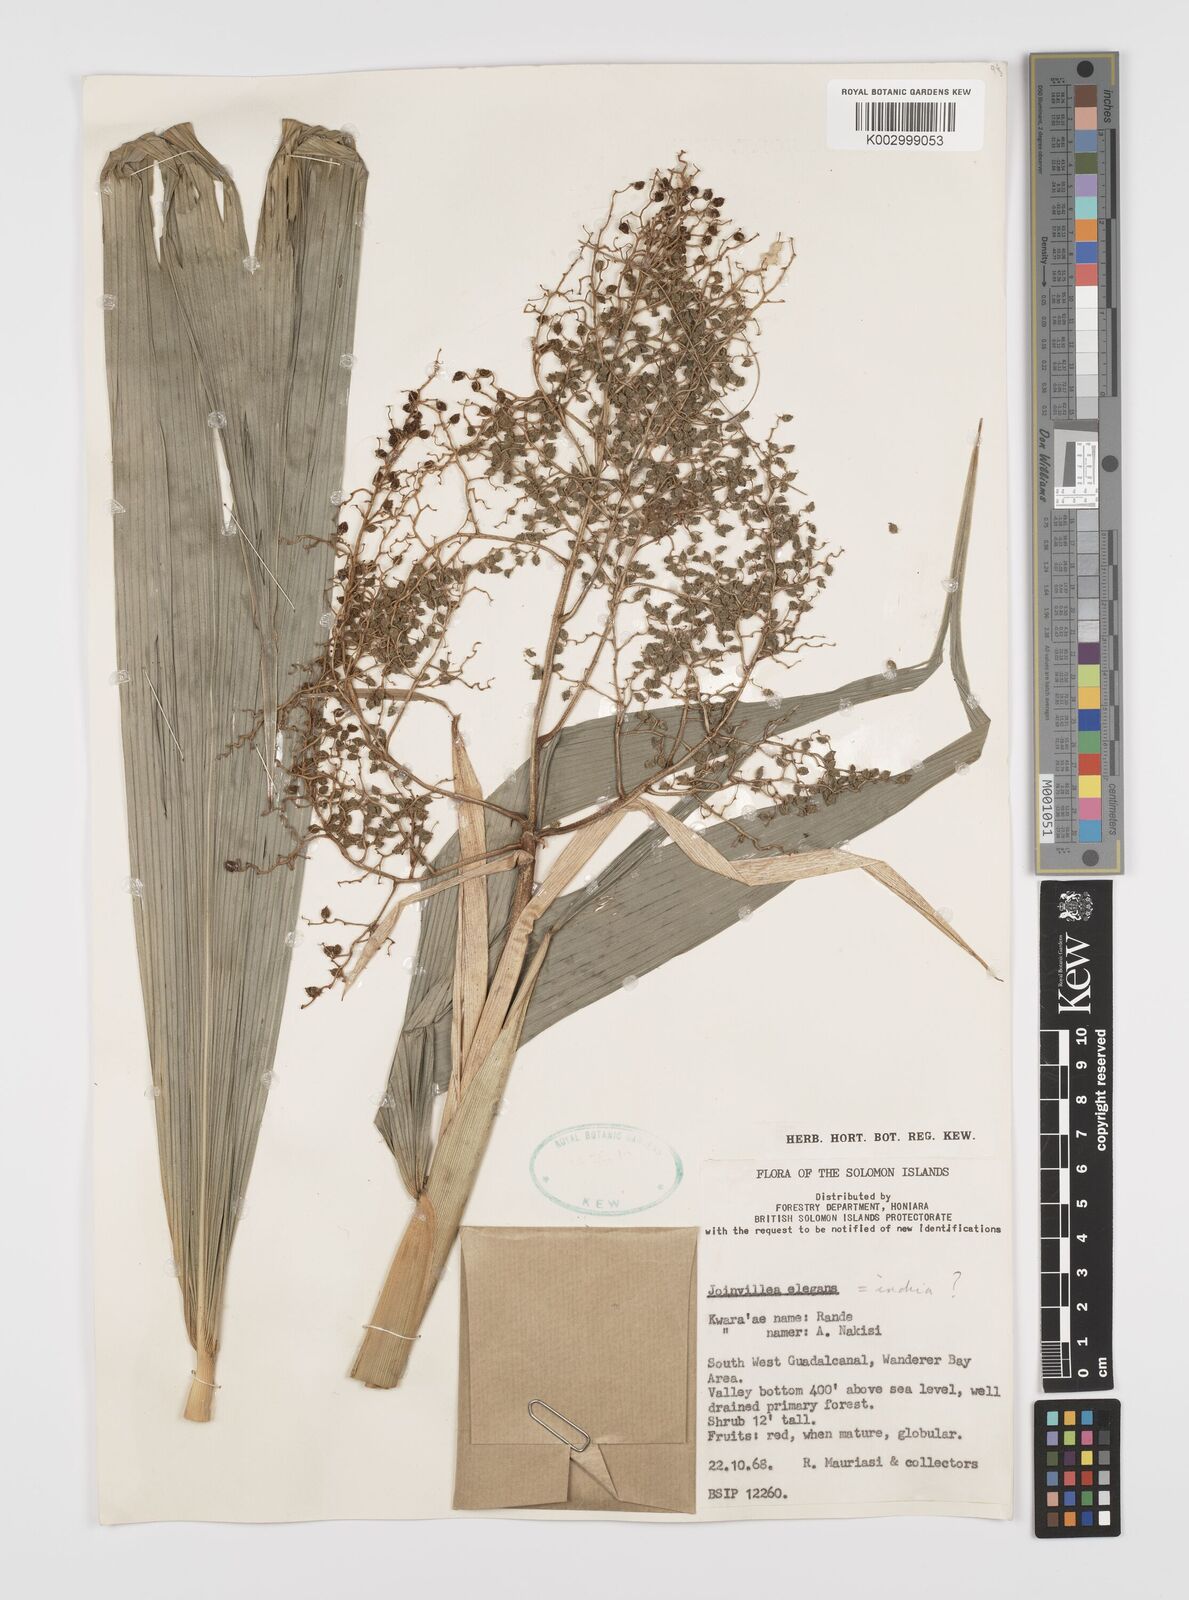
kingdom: Plantae
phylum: Tracheophyta
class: Liliopsida
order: Poales
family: Joinvilleaceae
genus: Joinvillea
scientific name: Joinvillea plicata
